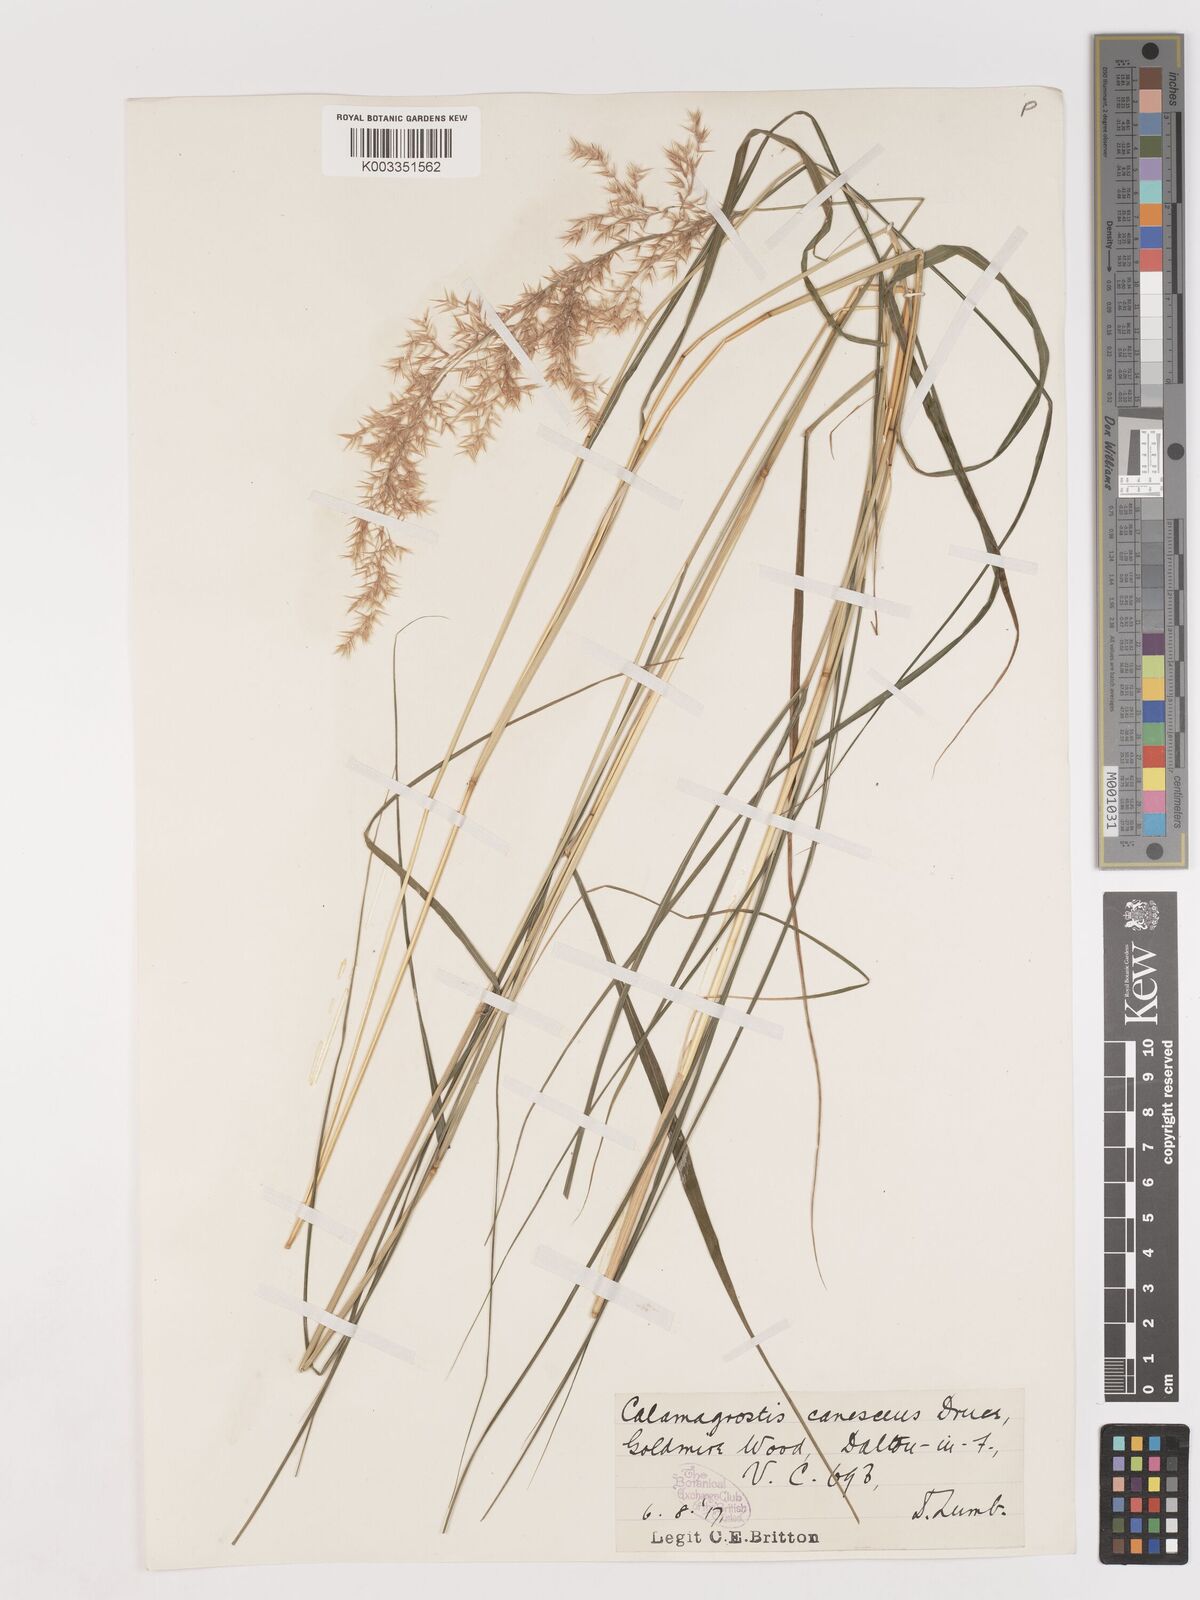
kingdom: Plantae
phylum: Tracheophyta
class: Liliopsida
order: Poales
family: Poaceae
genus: Calamagrostis
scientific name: Calamagrostis canescens
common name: Purple small-reed
